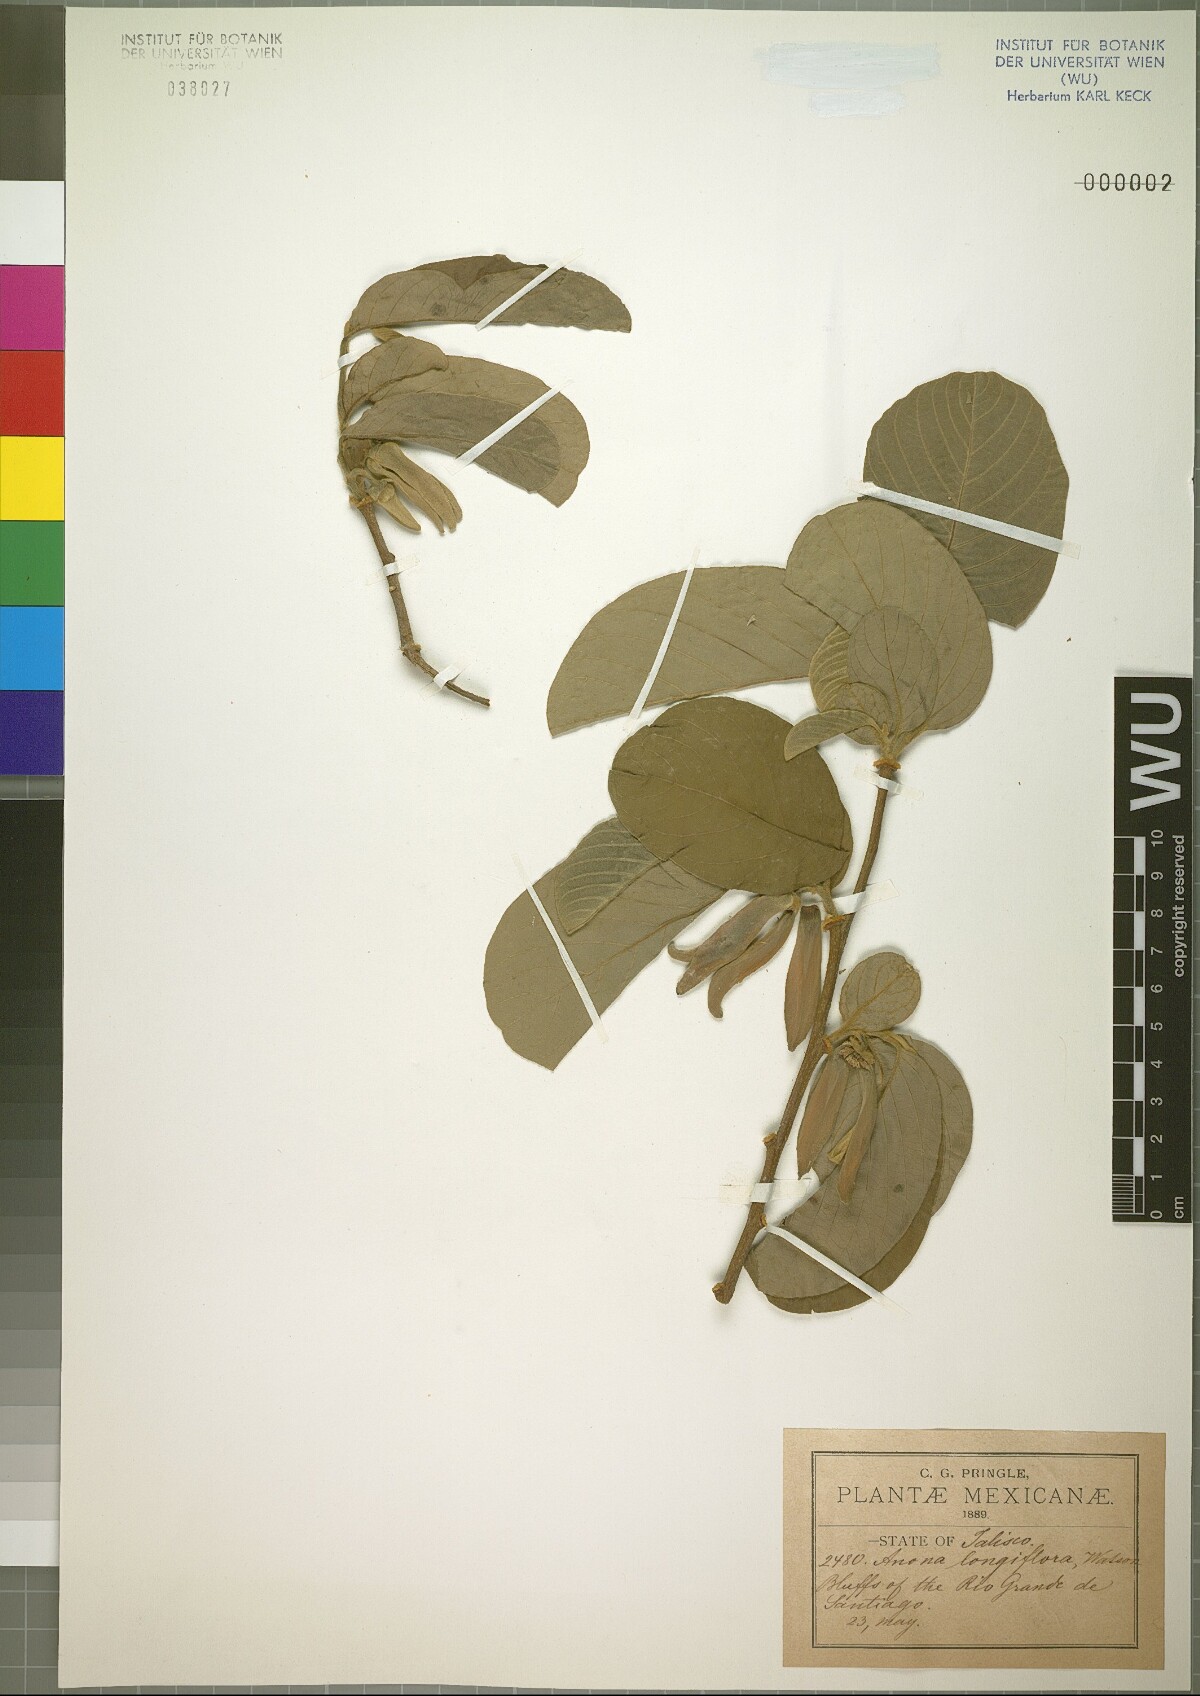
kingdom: Plantae
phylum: Tracheophyta
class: Magnoliopsida
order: Magnoliales
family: Annonaceae
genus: Annona
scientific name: Annona longiflora
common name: Wild cherimoya of jalisco
